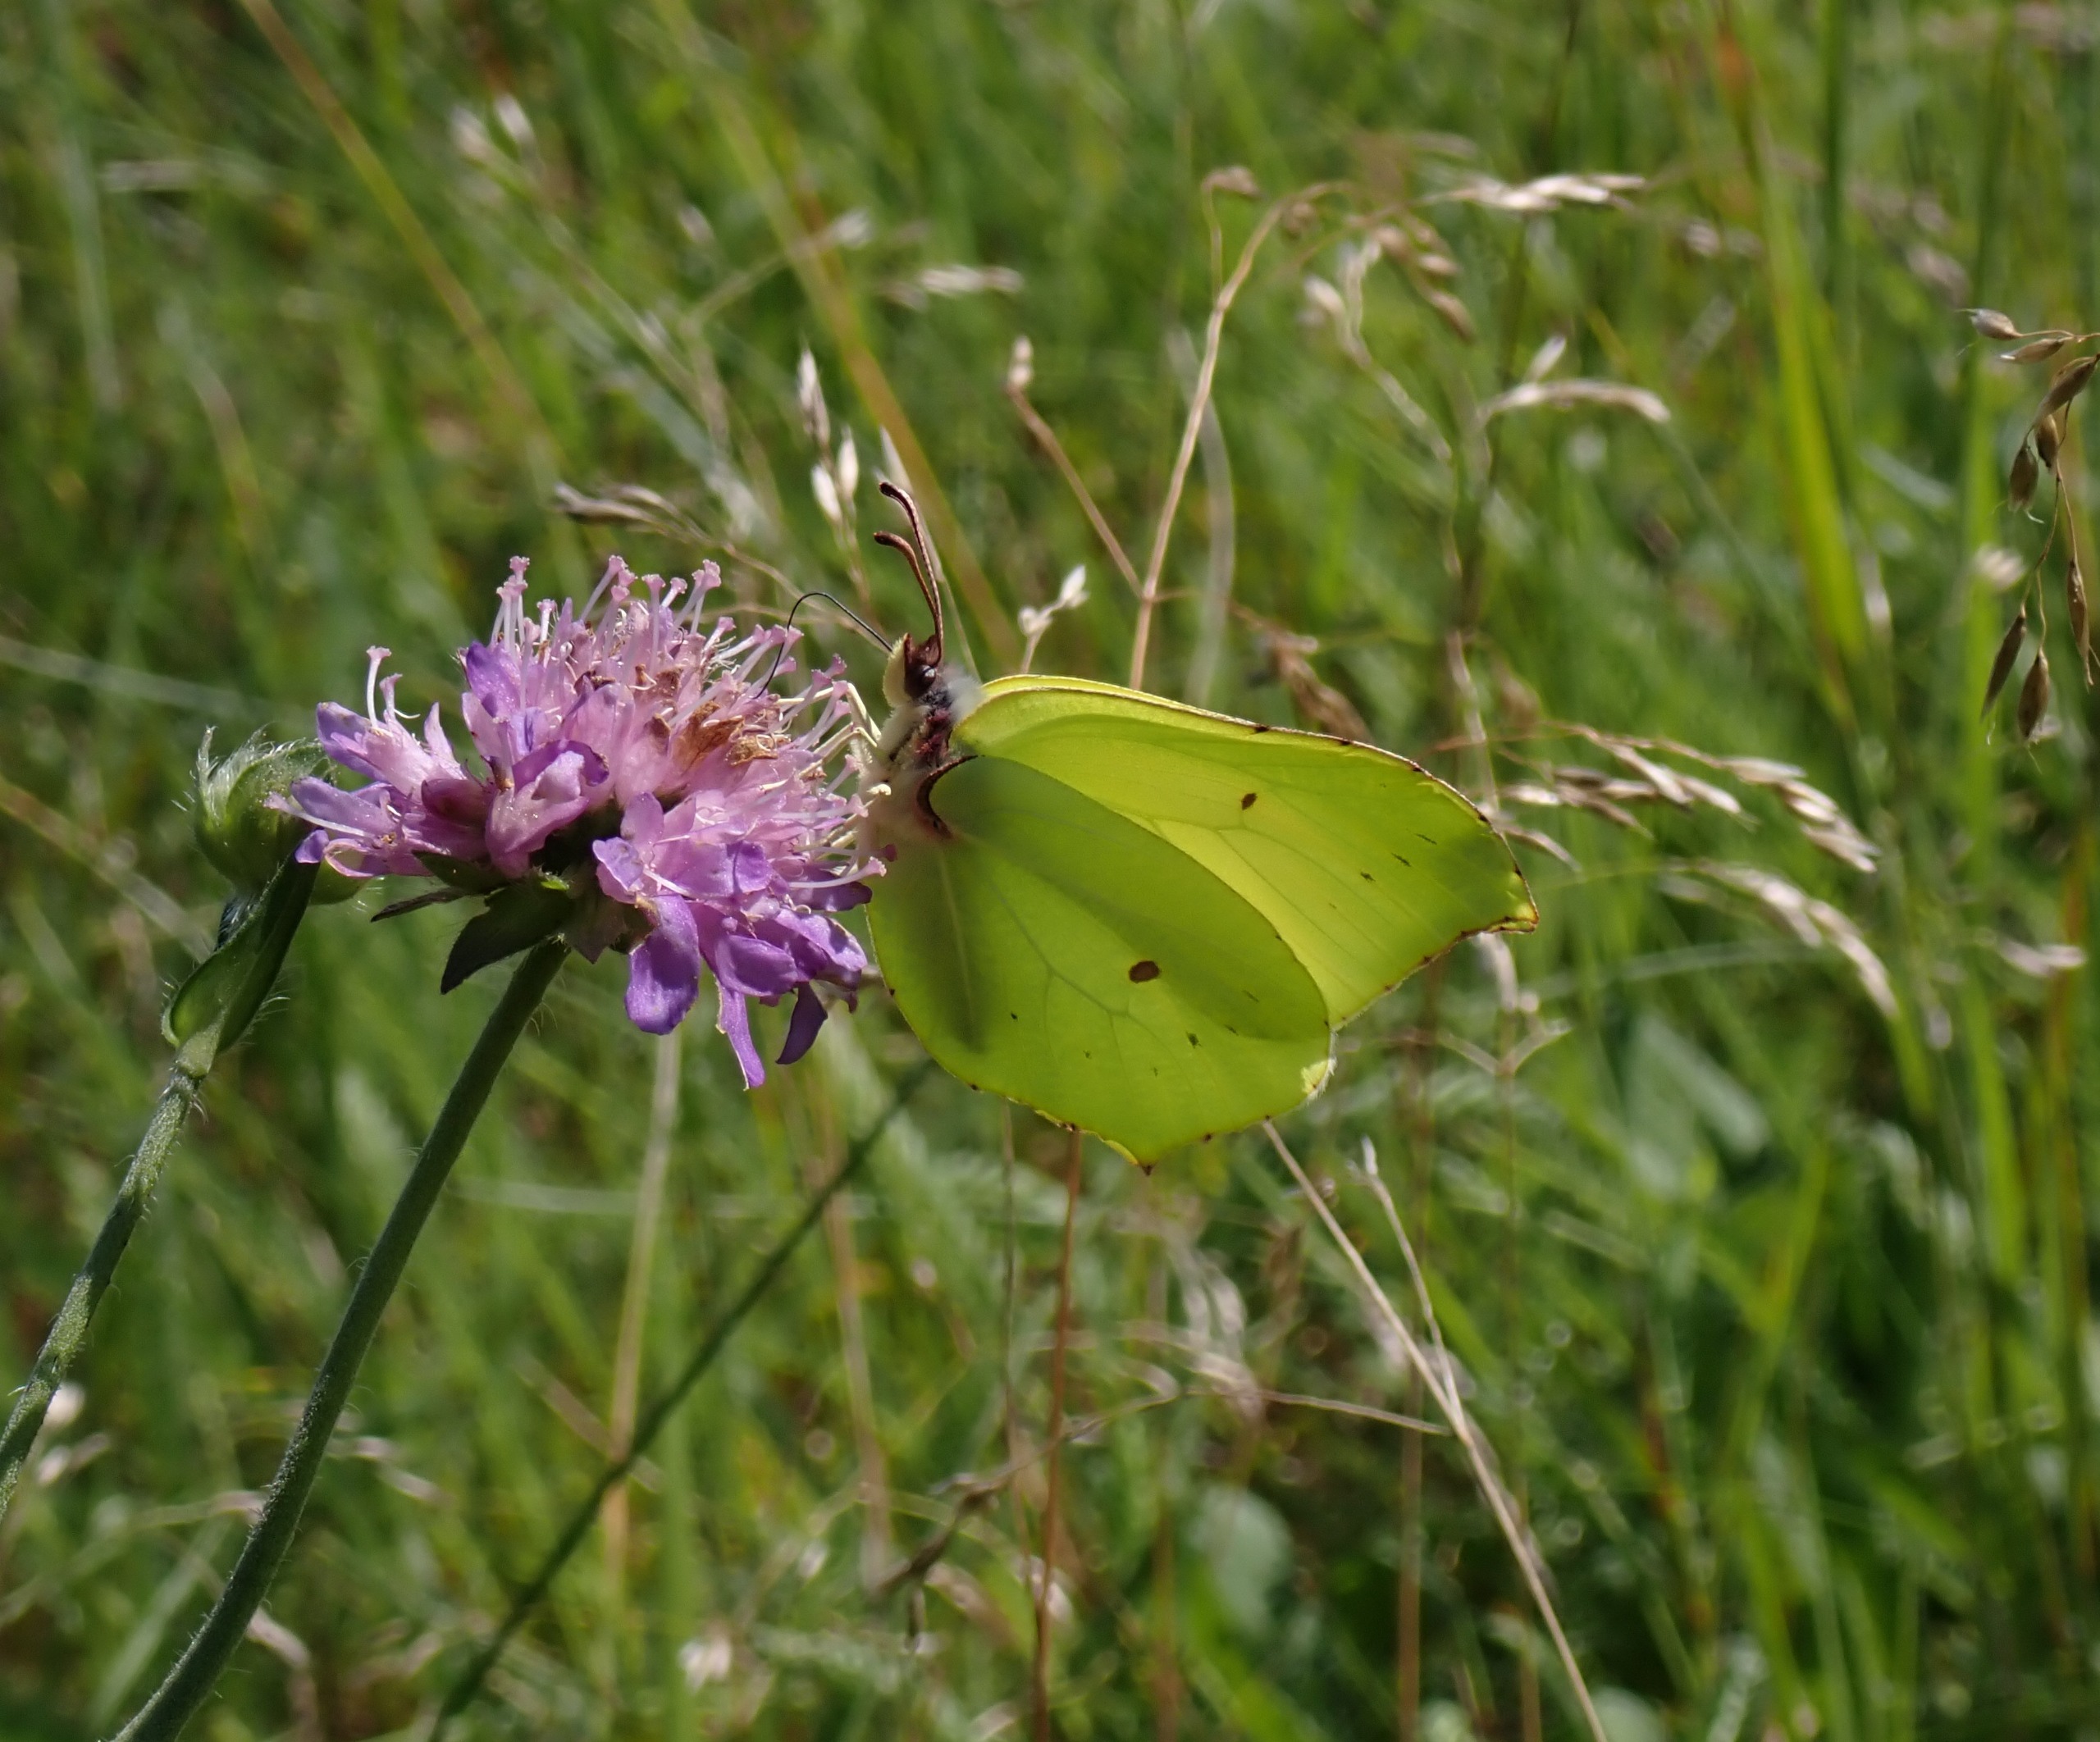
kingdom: Animalia
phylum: Arthropoda
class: Insecta
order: Lepidoptera
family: Pieridae
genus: Gonepteryx
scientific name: Gonepteryx rhamni
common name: Citronsommerfugl
